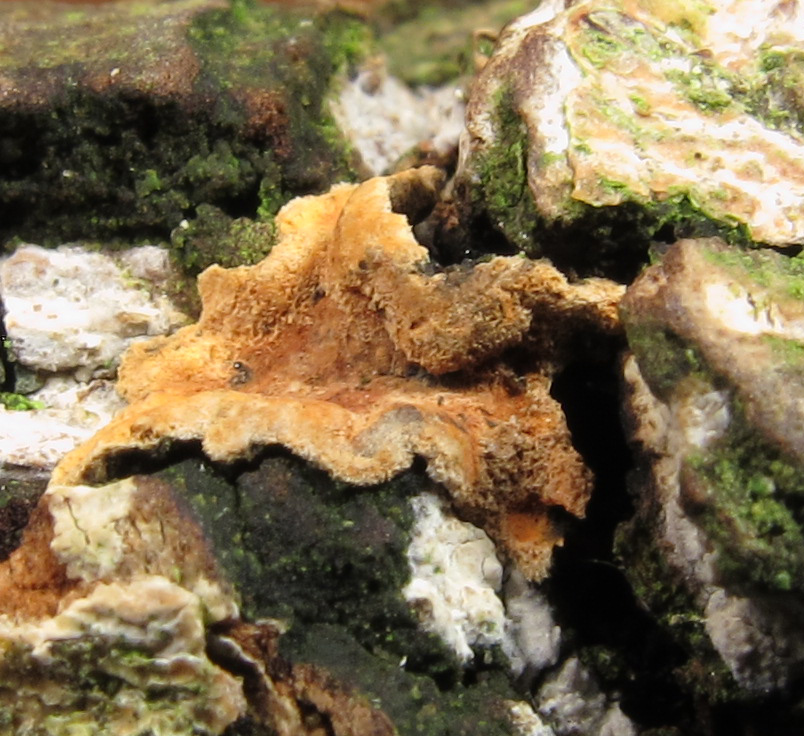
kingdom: Fungi
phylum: Basidiomycota
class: Agaricomycetes
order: Polyporales
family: Phanerochaetaceae
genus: Hapalopilus
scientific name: Hapalopilus rutilans
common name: rødlig okkerporesvamp
